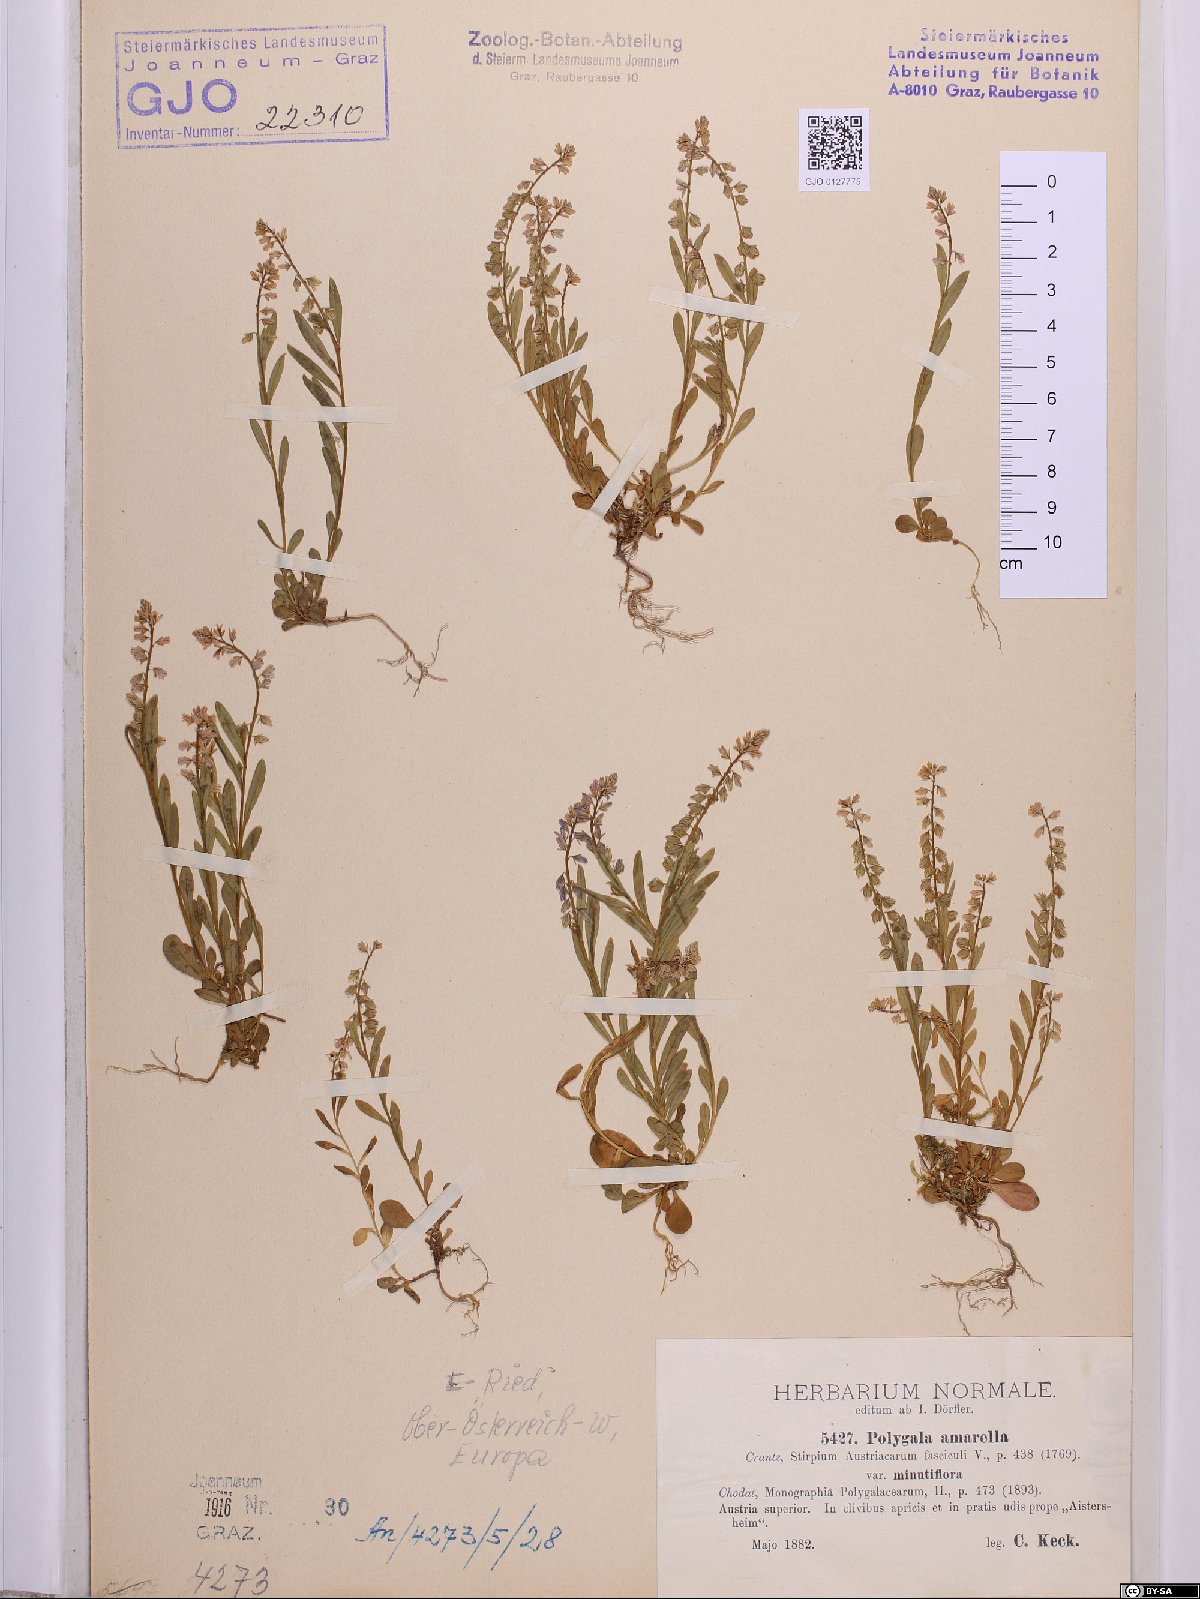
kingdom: Plantae
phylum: Tracheophyta
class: Magnoliopsida
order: Fabales
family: Polygalaceae
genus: Polygala
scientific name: Polygala amarella
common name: Dwarf milkwort
